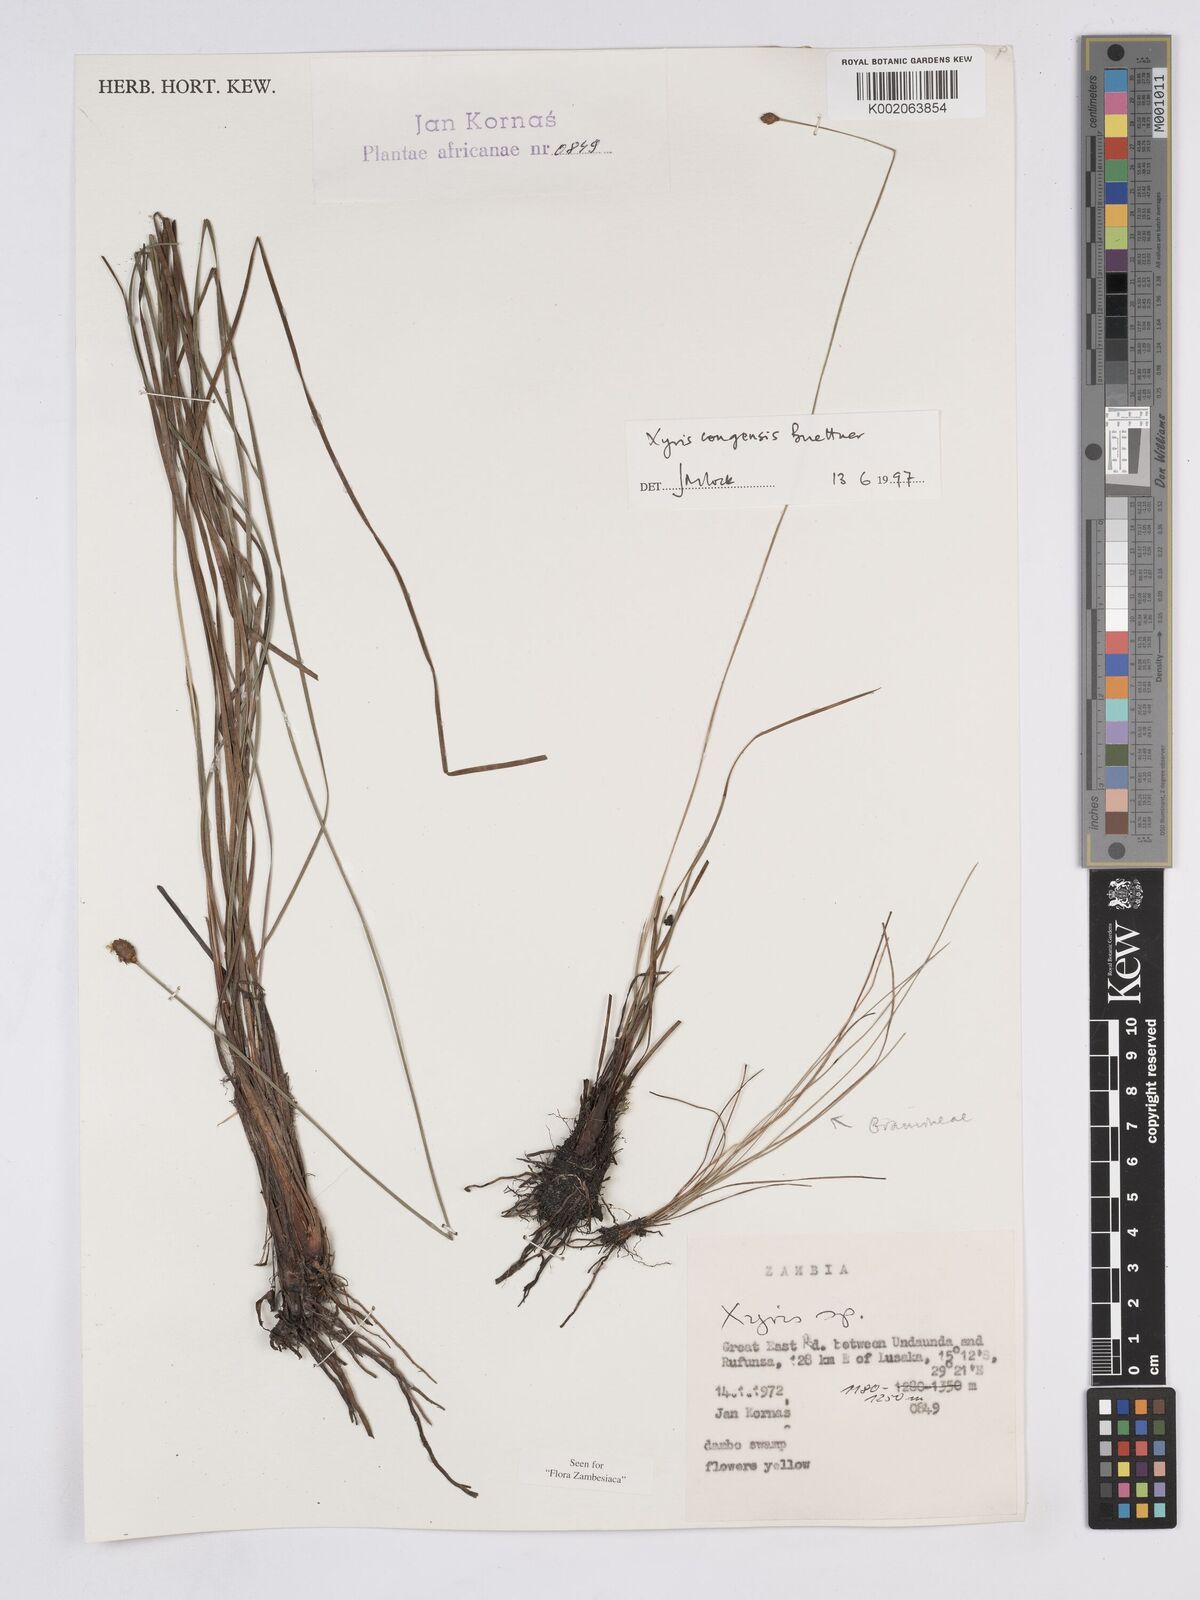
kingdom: Plantae
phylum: Tracheophyta
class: Liliopsida
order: Poales
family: Xyridaceae
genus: Xyris
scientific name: Xyris congensis
